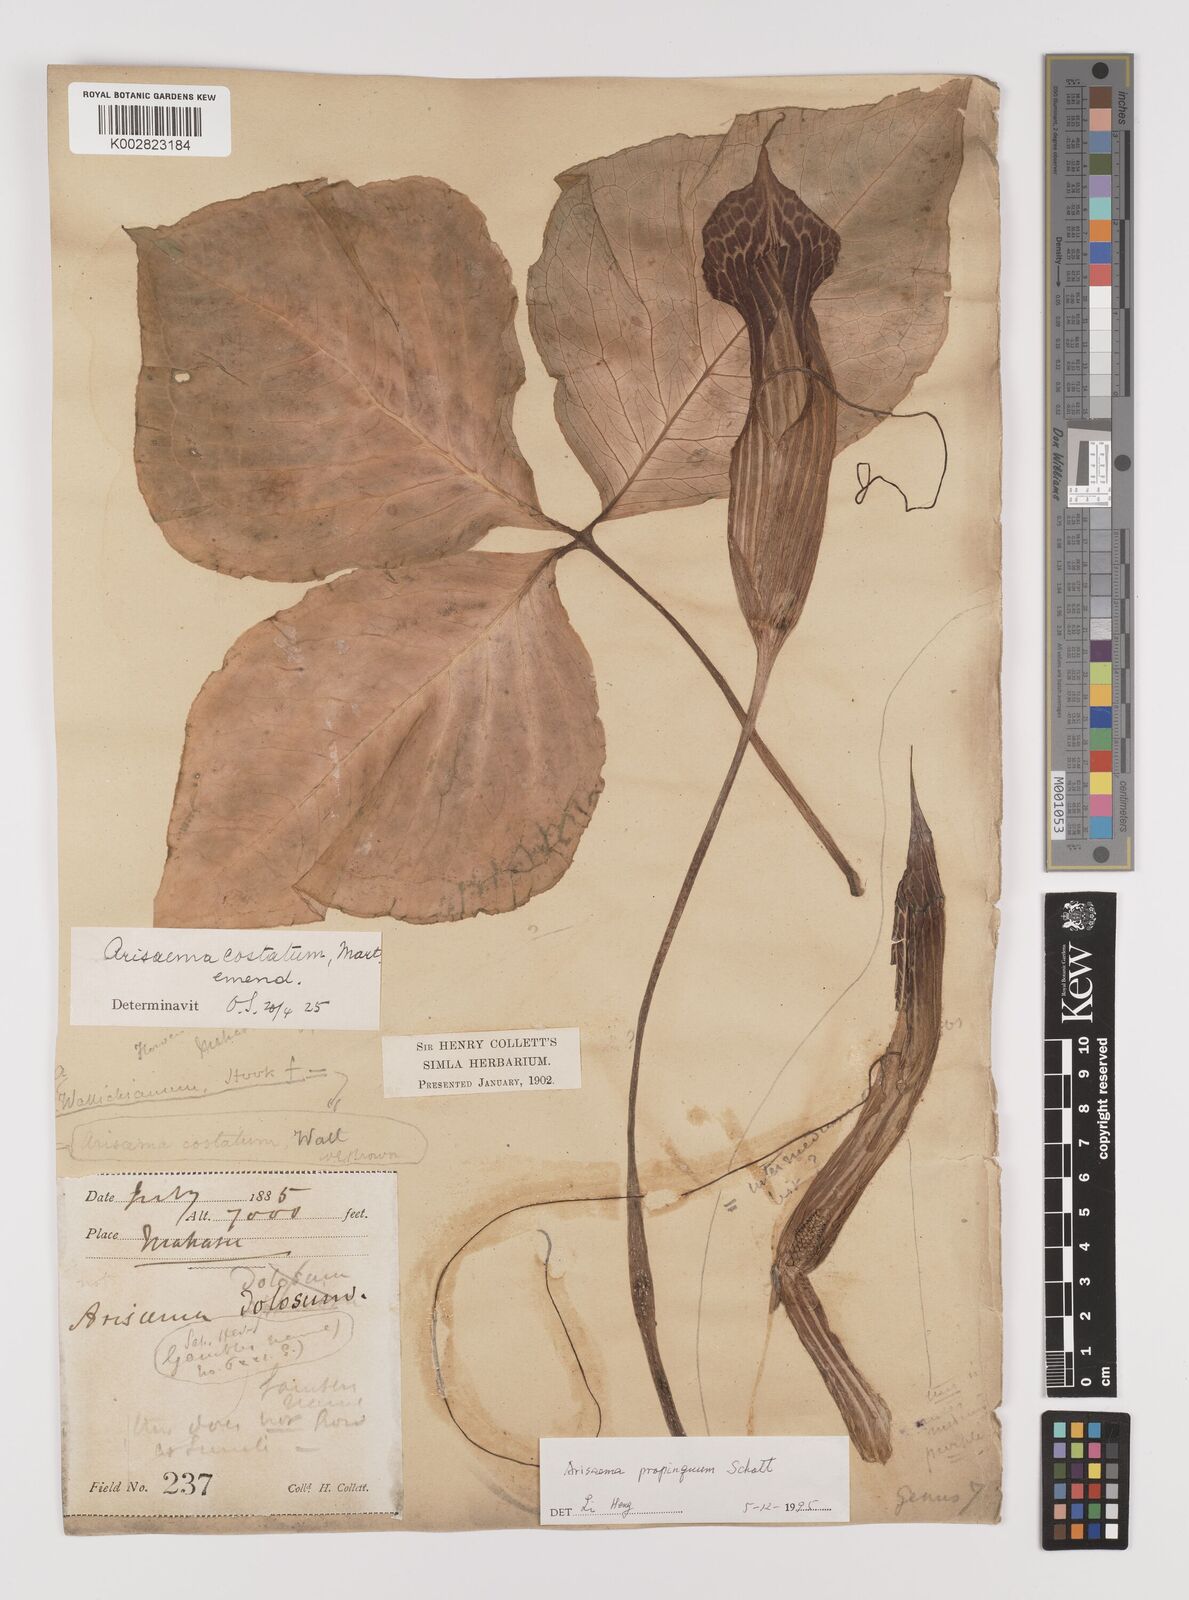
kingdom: Plantae
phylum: Tracheophyta
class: Liliopsida
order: Alismatales
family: Araceae
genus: Arisaema
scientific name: Arisaema propinquum
